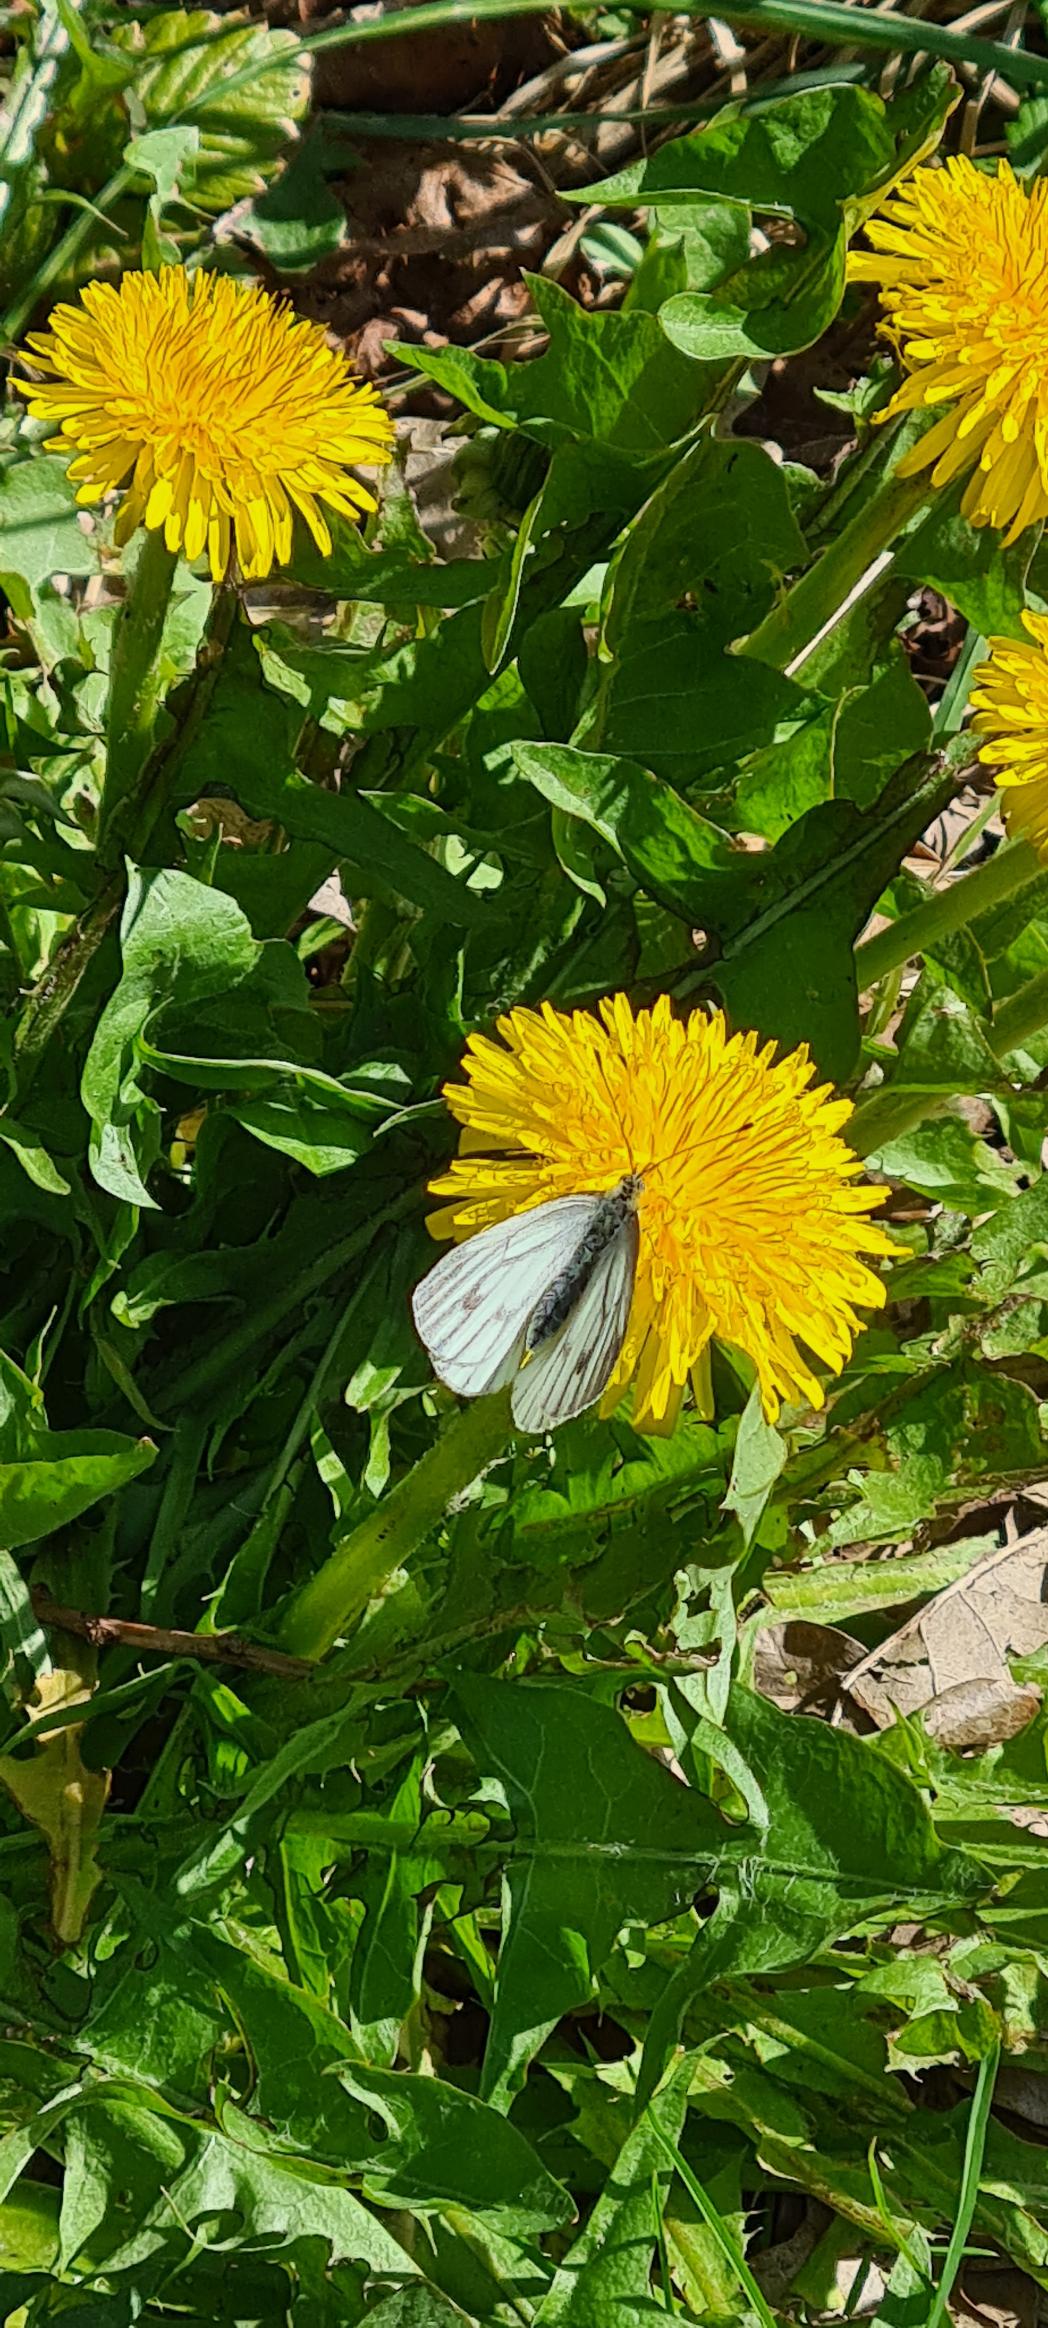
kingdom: Animalia
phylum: Arthropoda
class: Insecta
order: Lepidoptera
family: Pieridae
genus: Pieris
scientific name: Pieris napi
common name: Grønåret kålsommerfugl
